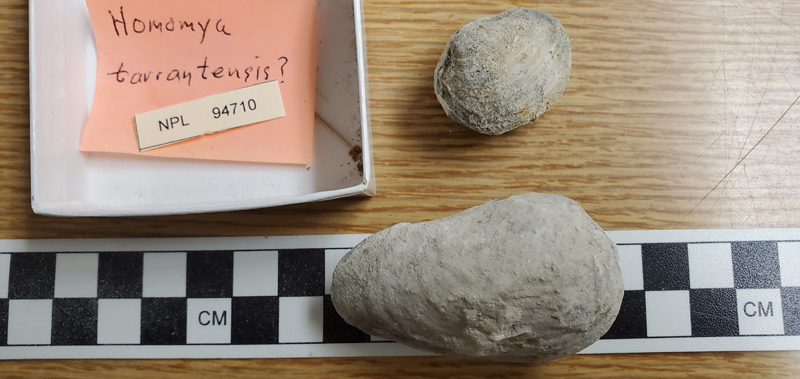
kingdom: Animalia
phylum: Mollusca
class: Bivalvia
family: Pholadomyidae
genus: Homomya
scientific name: Homomya
